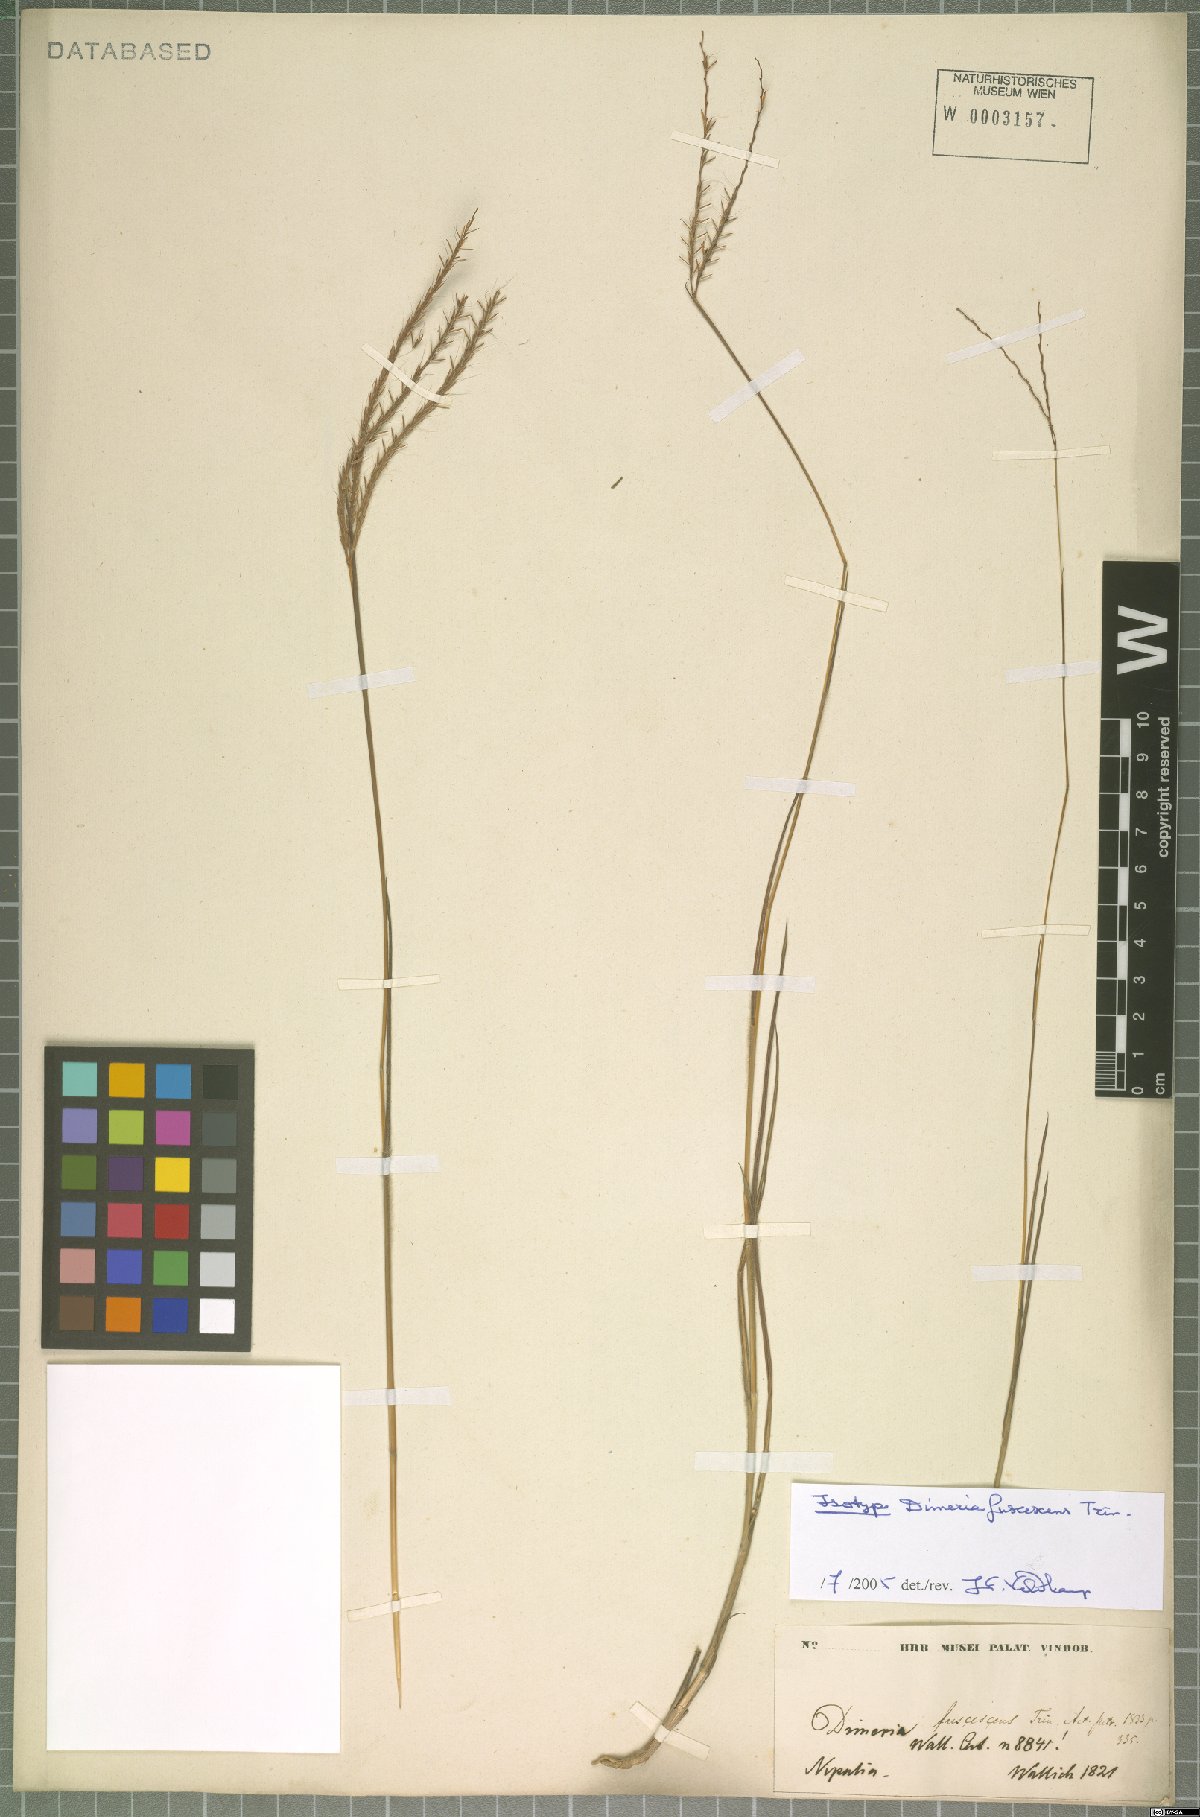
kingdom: Plantae
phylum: Tracheophyta
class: Liliopsida
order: Poales
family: Poaceae
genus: Dimeria
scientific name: Dimeria chloridiformis
